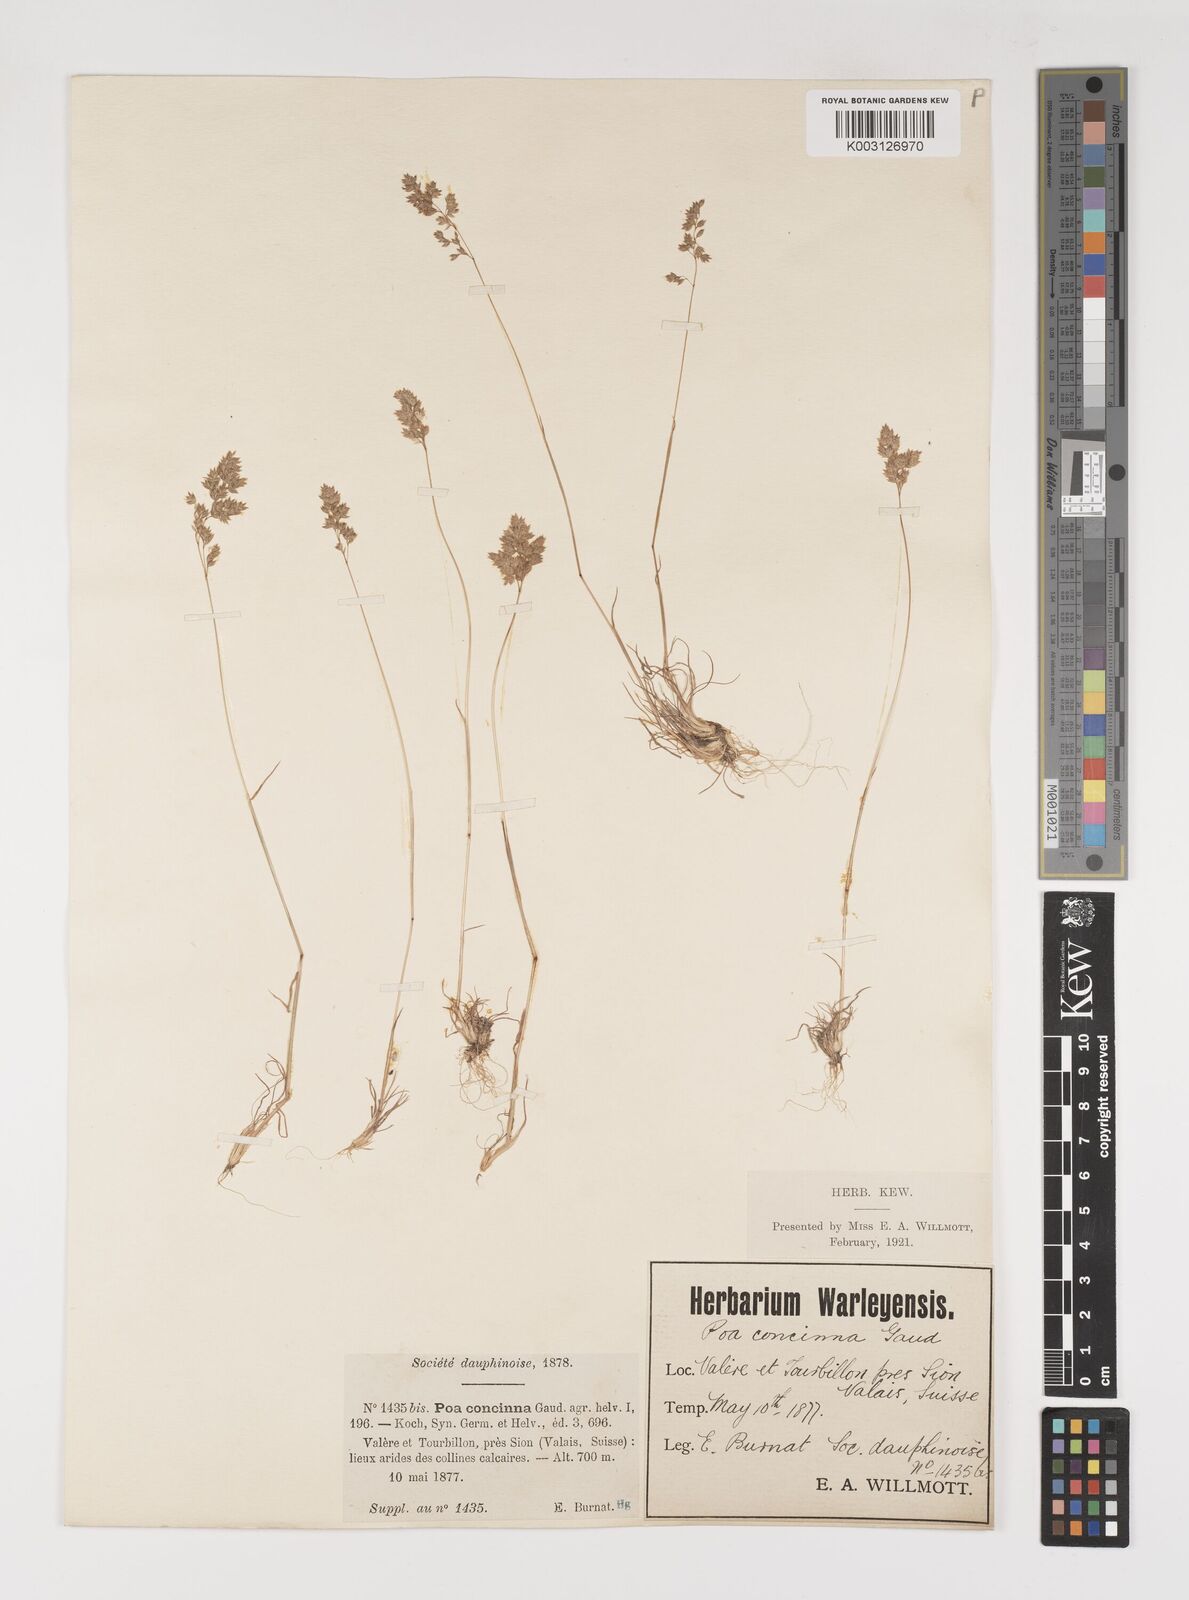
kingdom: Plantae
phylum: Tracheophyta
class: Liliopsida
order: Poales
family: Poaceae
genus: Poa
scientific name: Poa perconcinna
